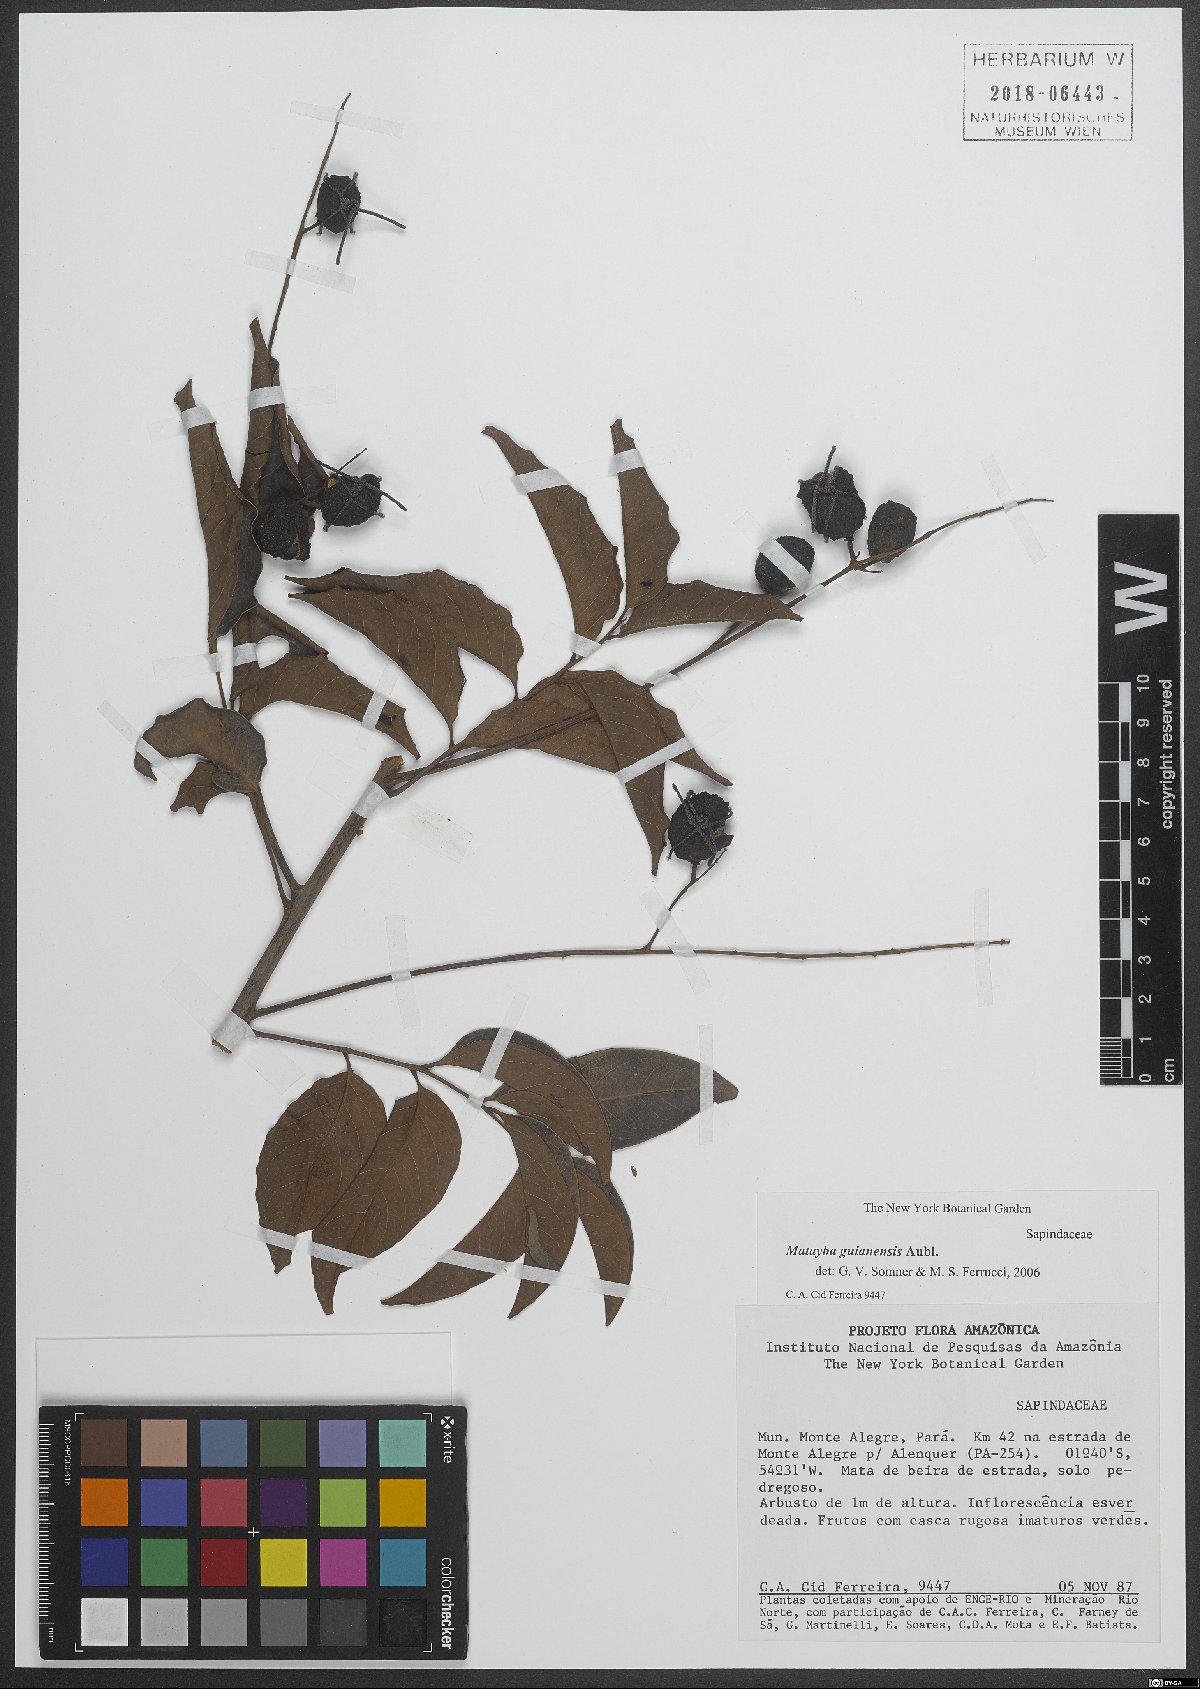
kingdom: Plantae
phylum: Tracheophyta
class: Magnoliopsida
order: Sapindales
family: Sapindaceae
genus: Matayba
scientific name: Matayba guianensis
